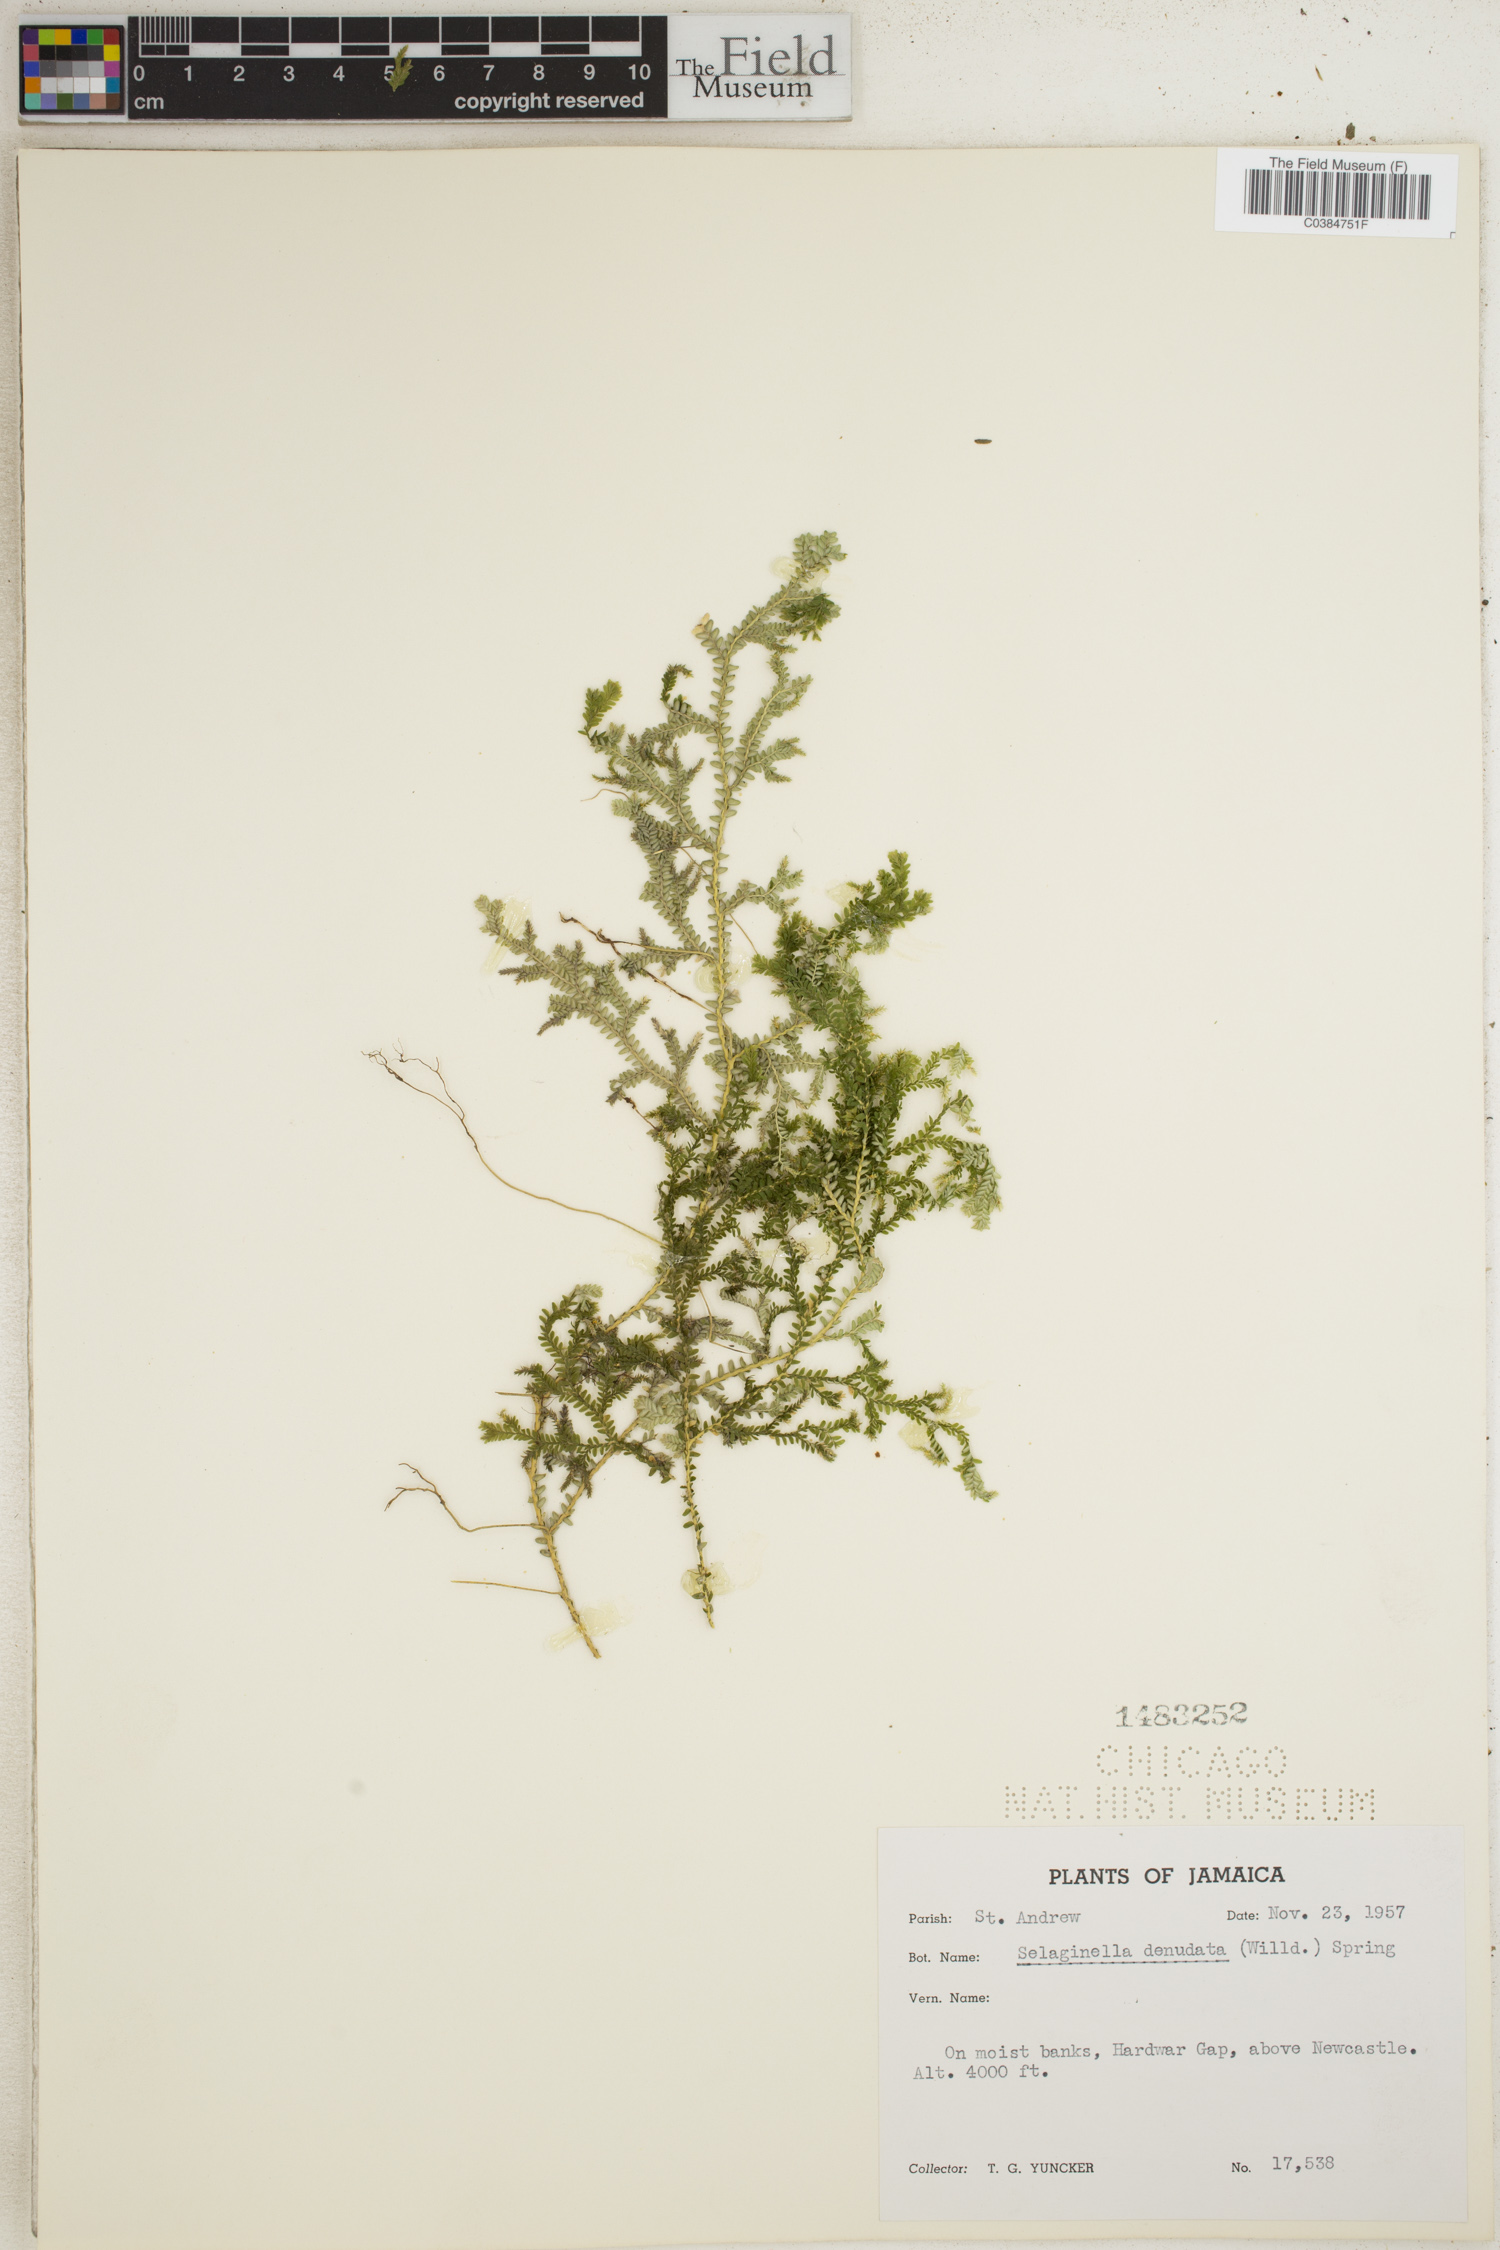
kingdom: Plantae
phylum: Tracheophyta
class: Lycopodiopsida
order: Selaginellales
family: Selaginellaceae
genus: Selaginella
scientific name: Selaginella denudata
